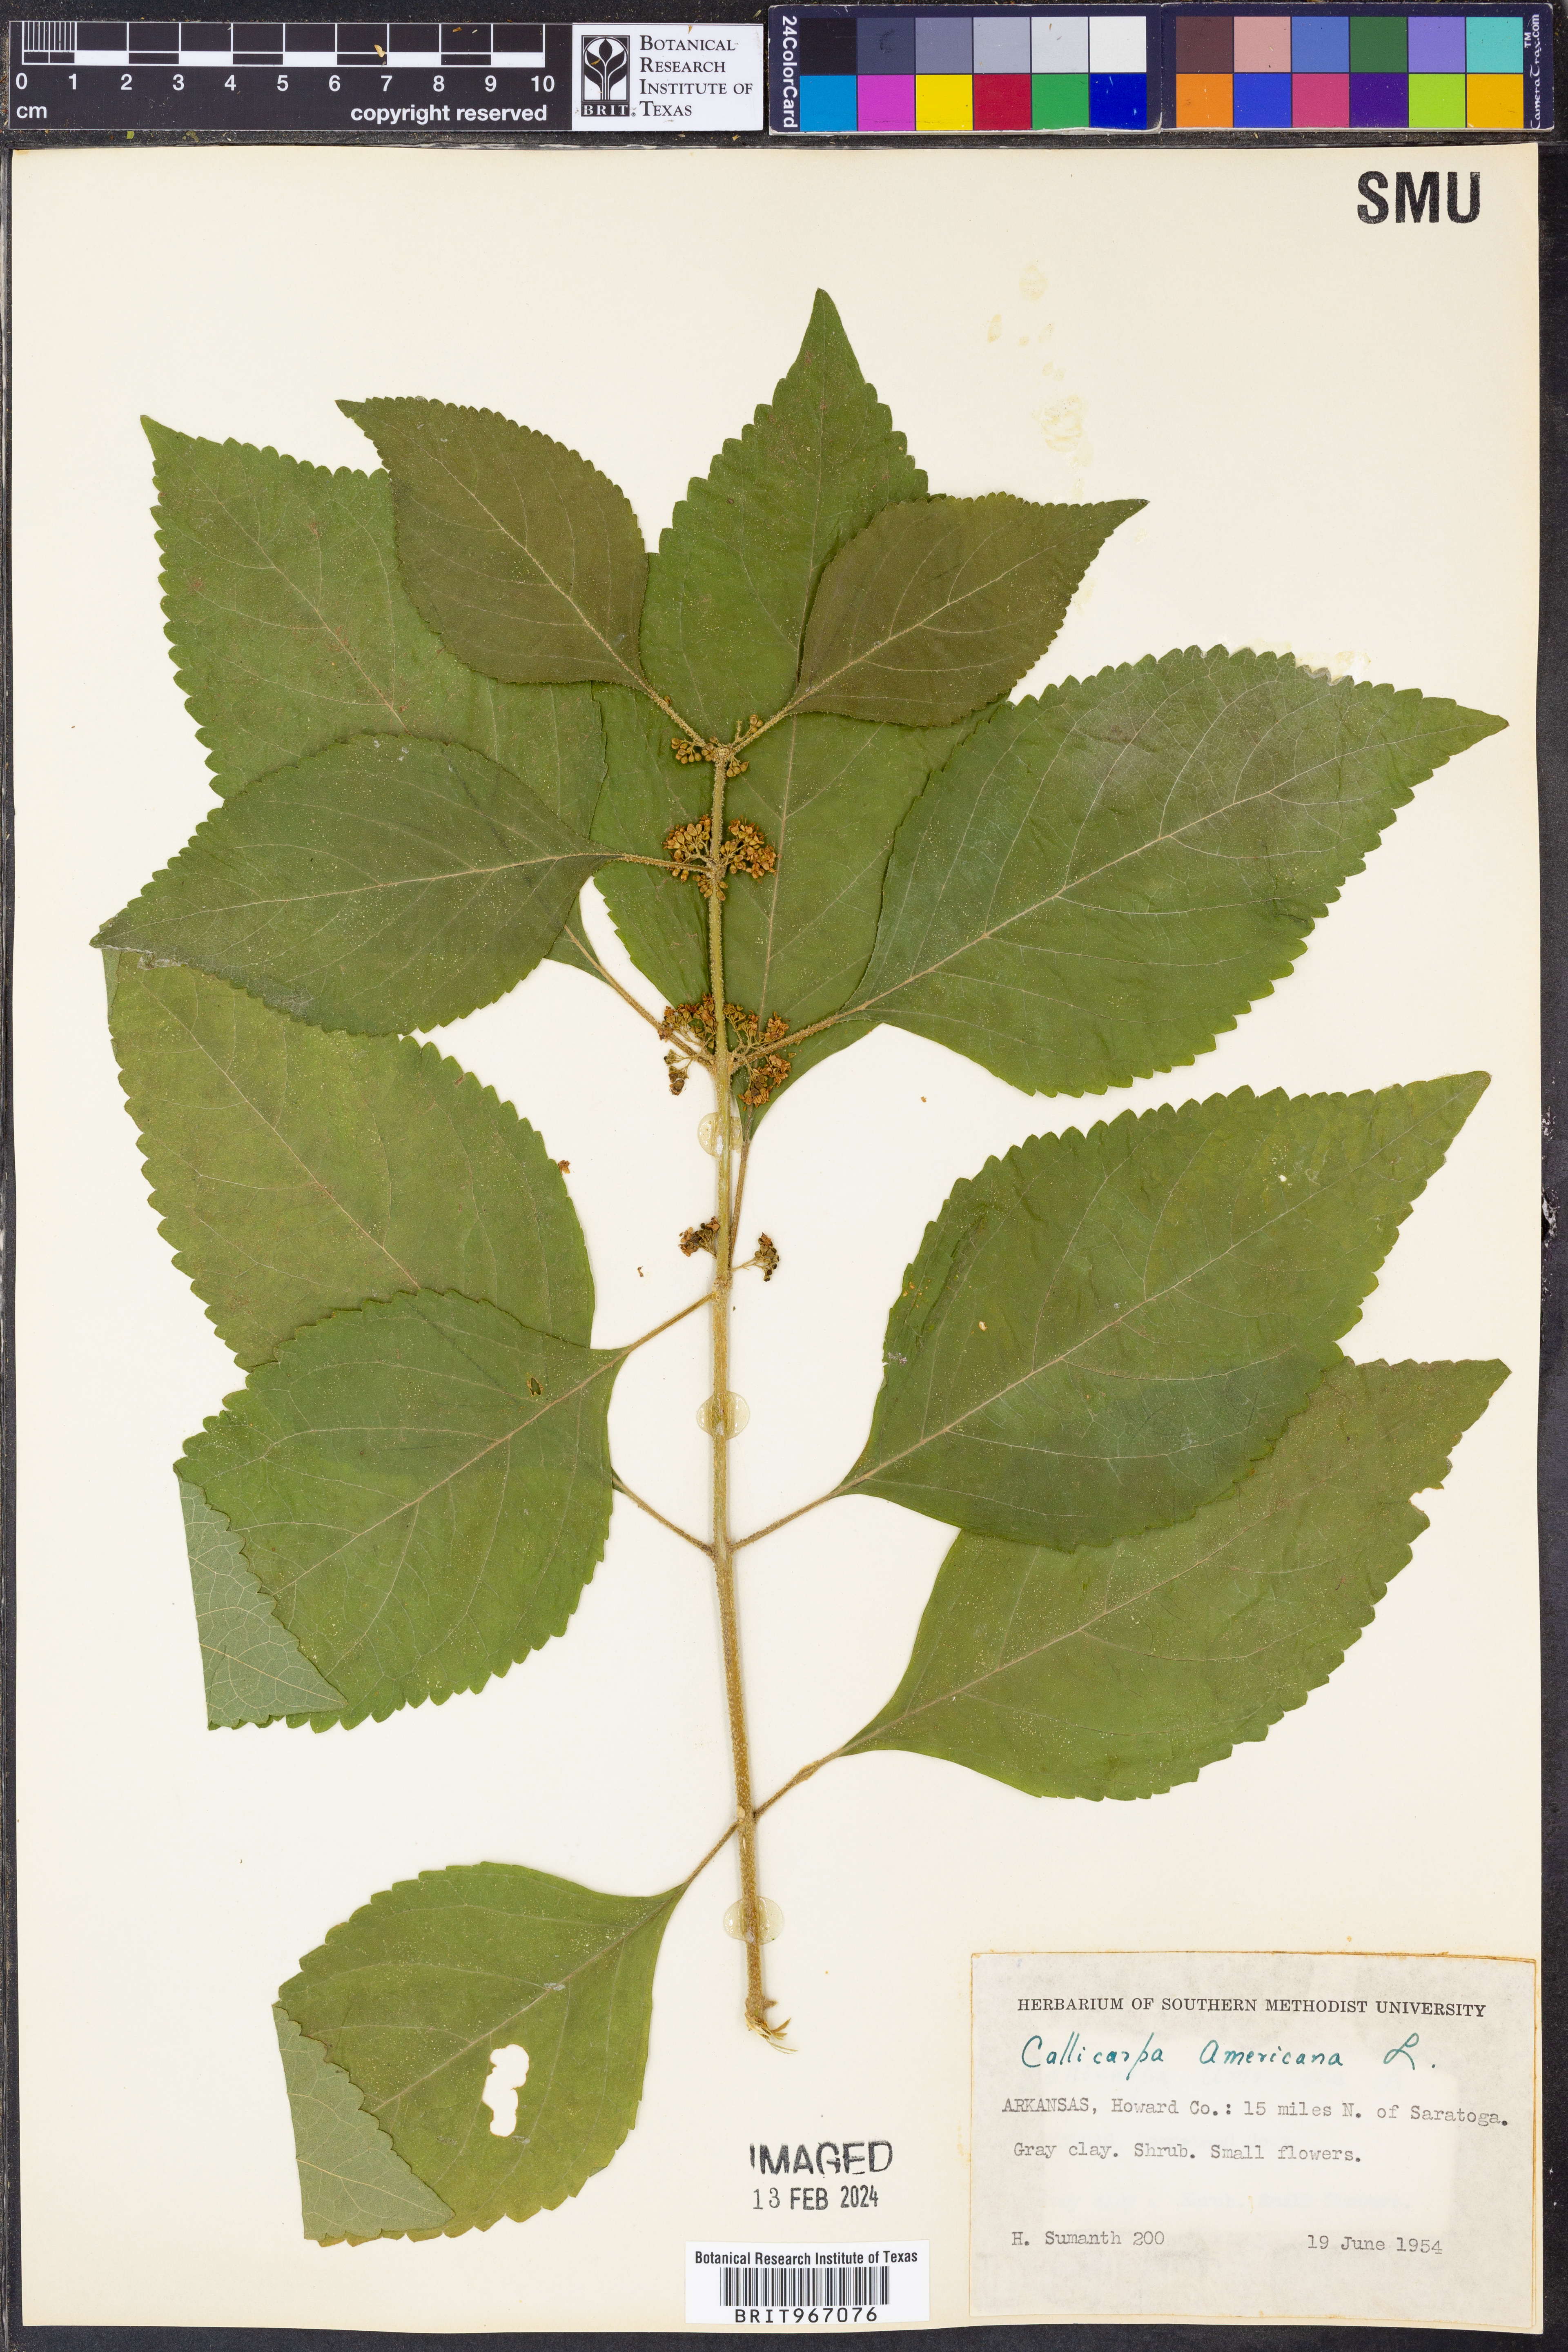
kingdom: Plantae
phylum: Tracheophyta
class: Magnoliopsida
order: Lamiales
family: Lamiaceae
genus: Callicarpa
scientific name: Callicarpa americana
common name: American beautyberry
